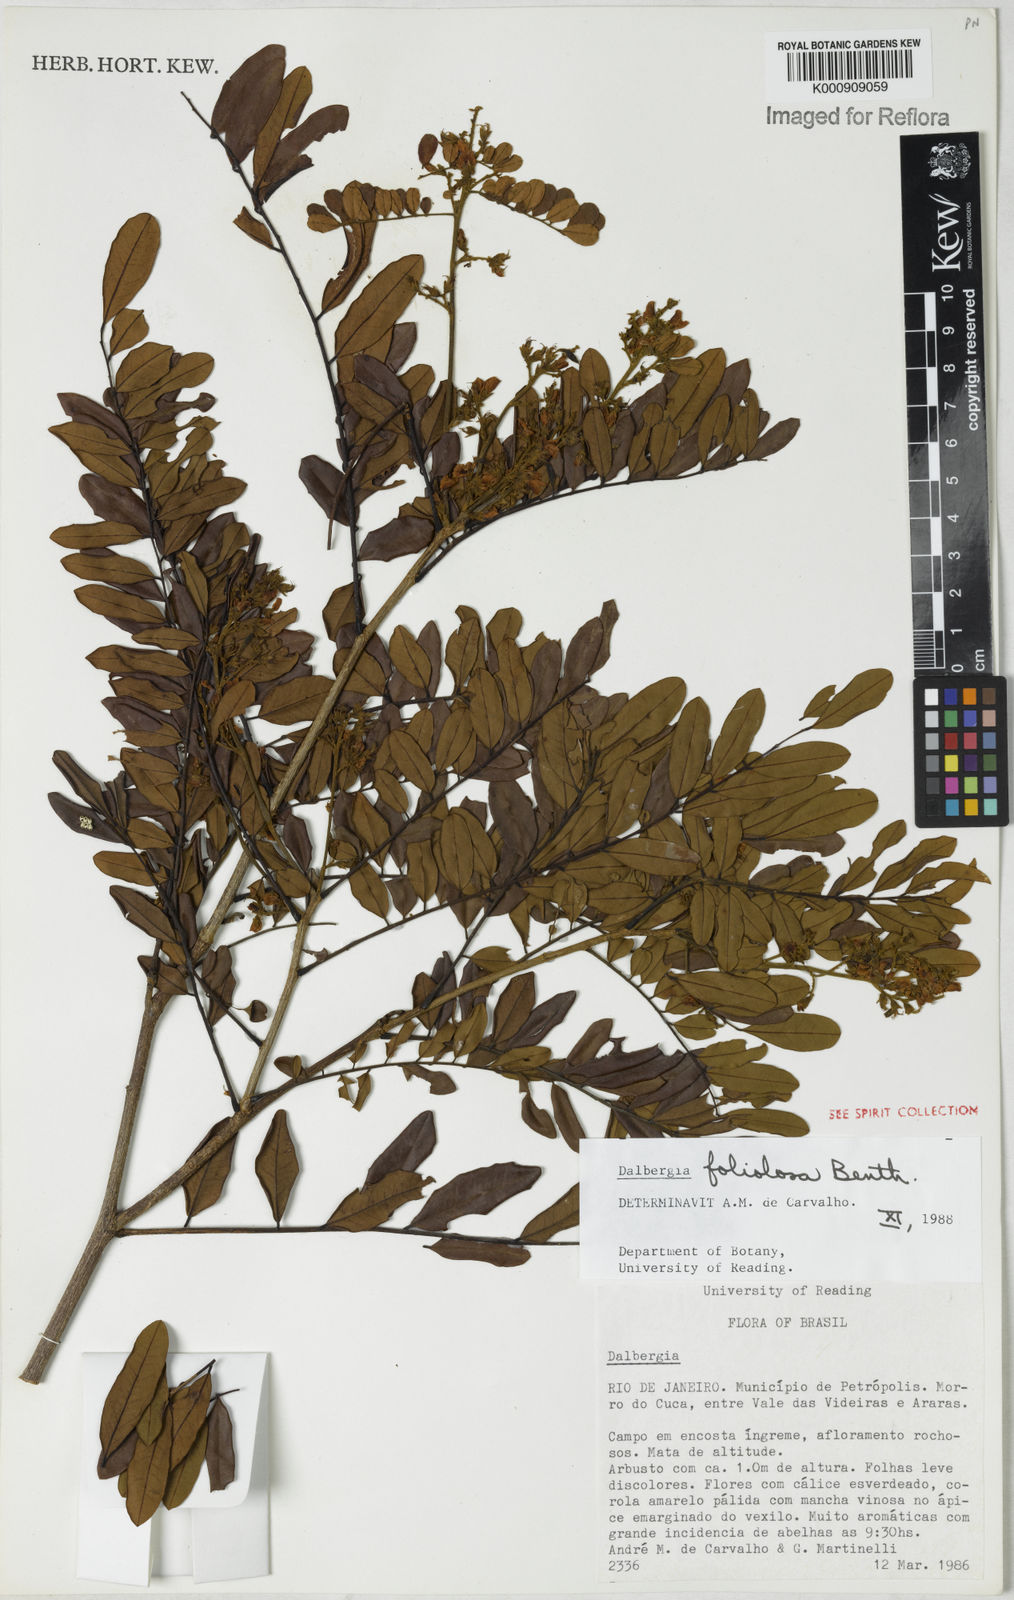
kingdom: Plantae
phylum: Tracheophyta
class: Magnoliopsida
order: Fabales
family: Fabaceae
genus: Dalbergia
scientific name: Dalbergia foliolosa
